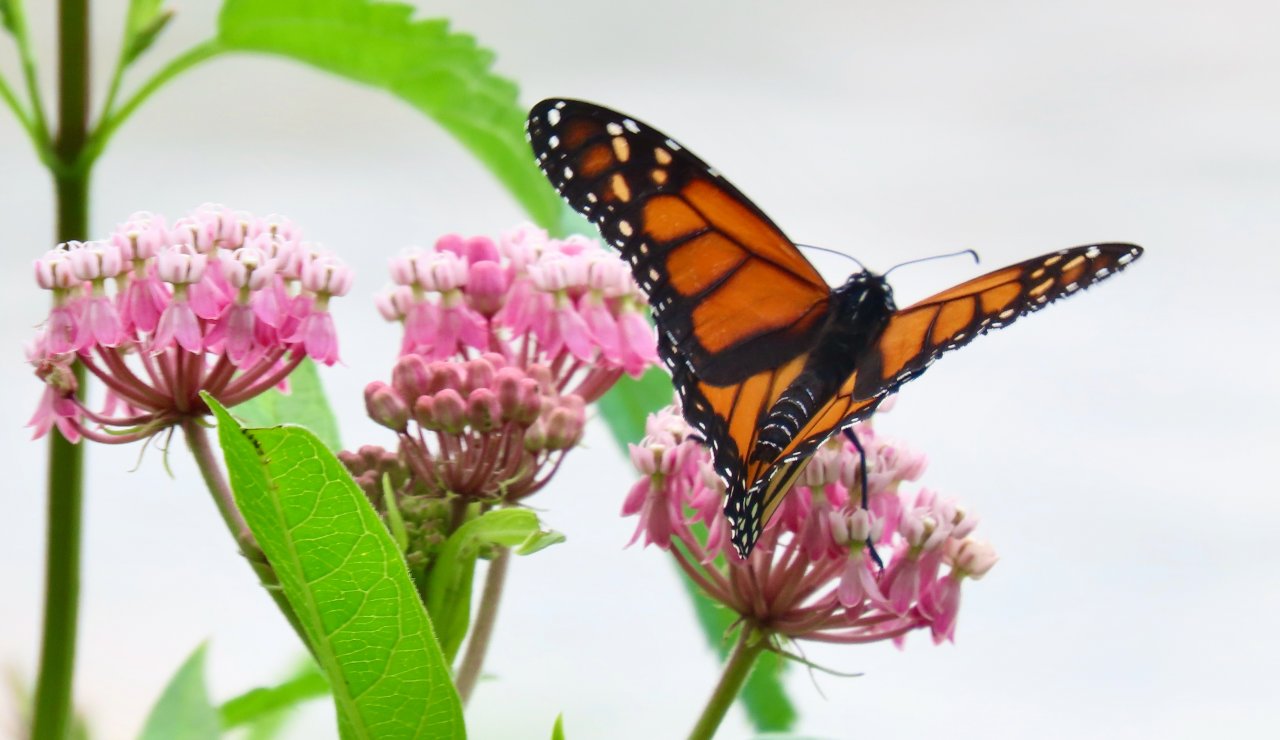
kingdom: Animalia
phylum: Arthropoda
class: Insecta
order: Lepidoptera
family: Nymphalidae
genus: Danaus
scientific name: Danaus plexippus
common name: Monarch
